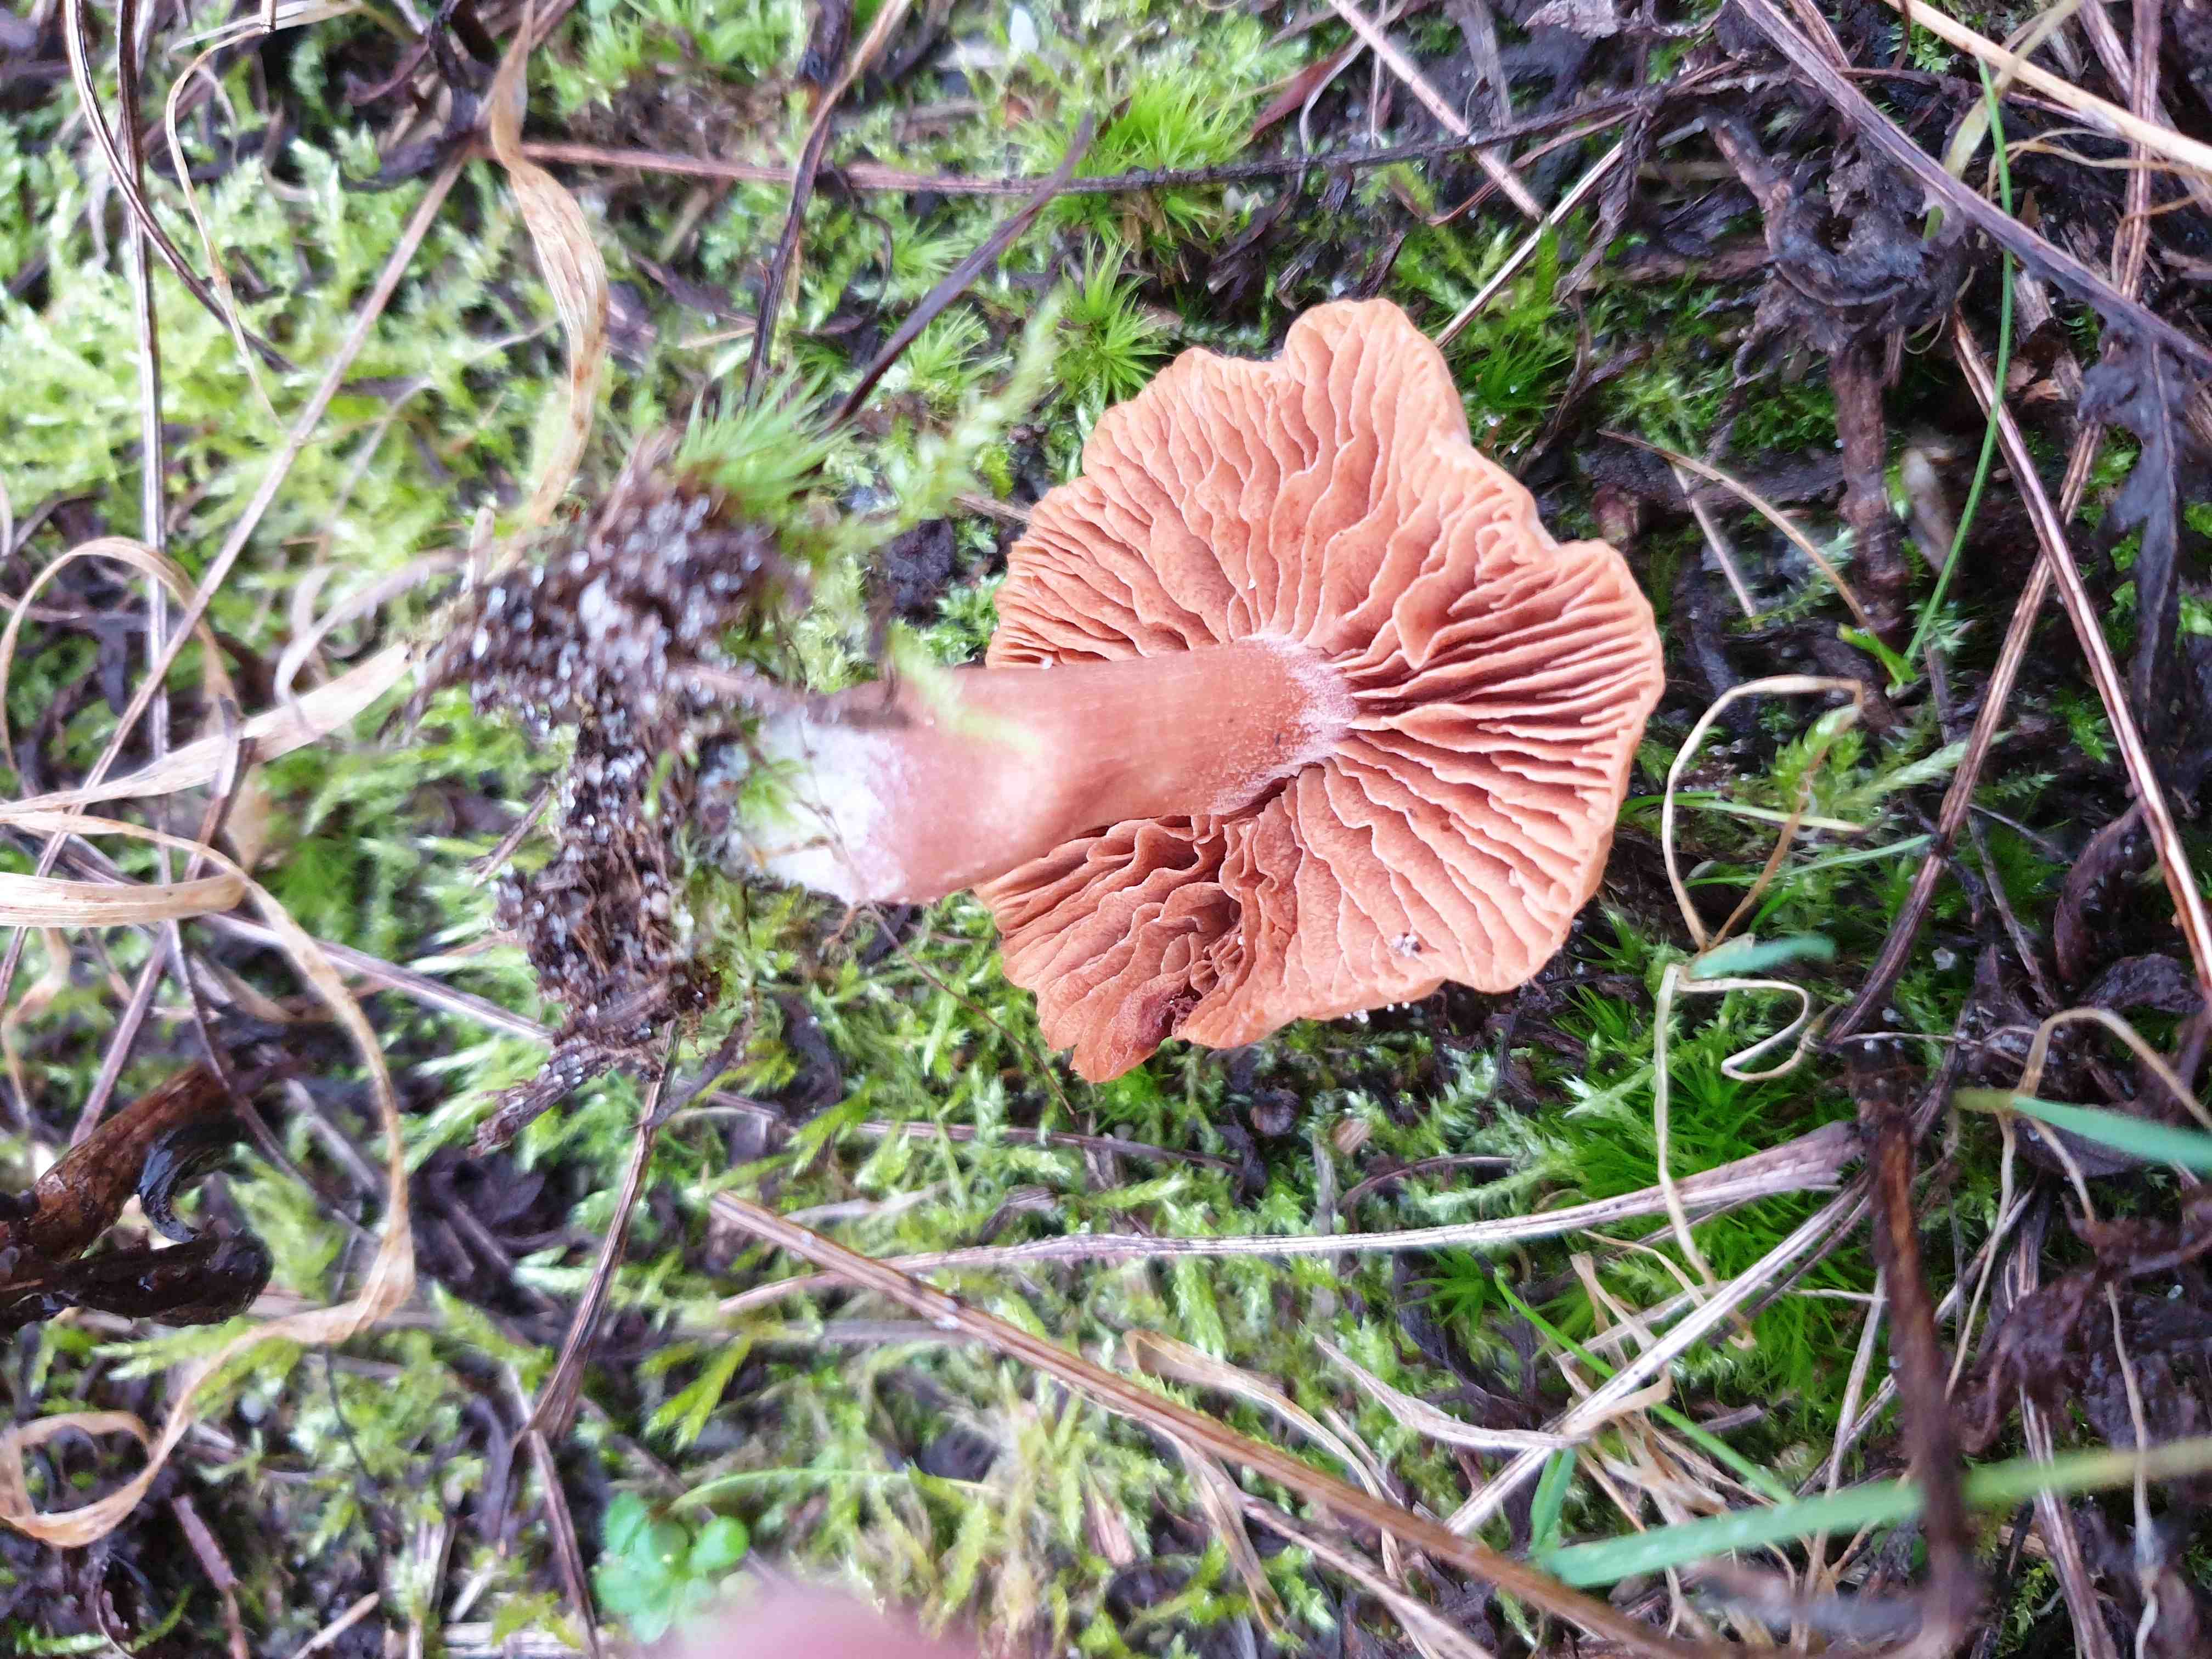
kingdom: Fungi
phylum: Basidiomycota
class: Agaricomycetes
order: Agaricales
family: Tubariaceae
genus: Tubaria
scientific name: Tubaria
